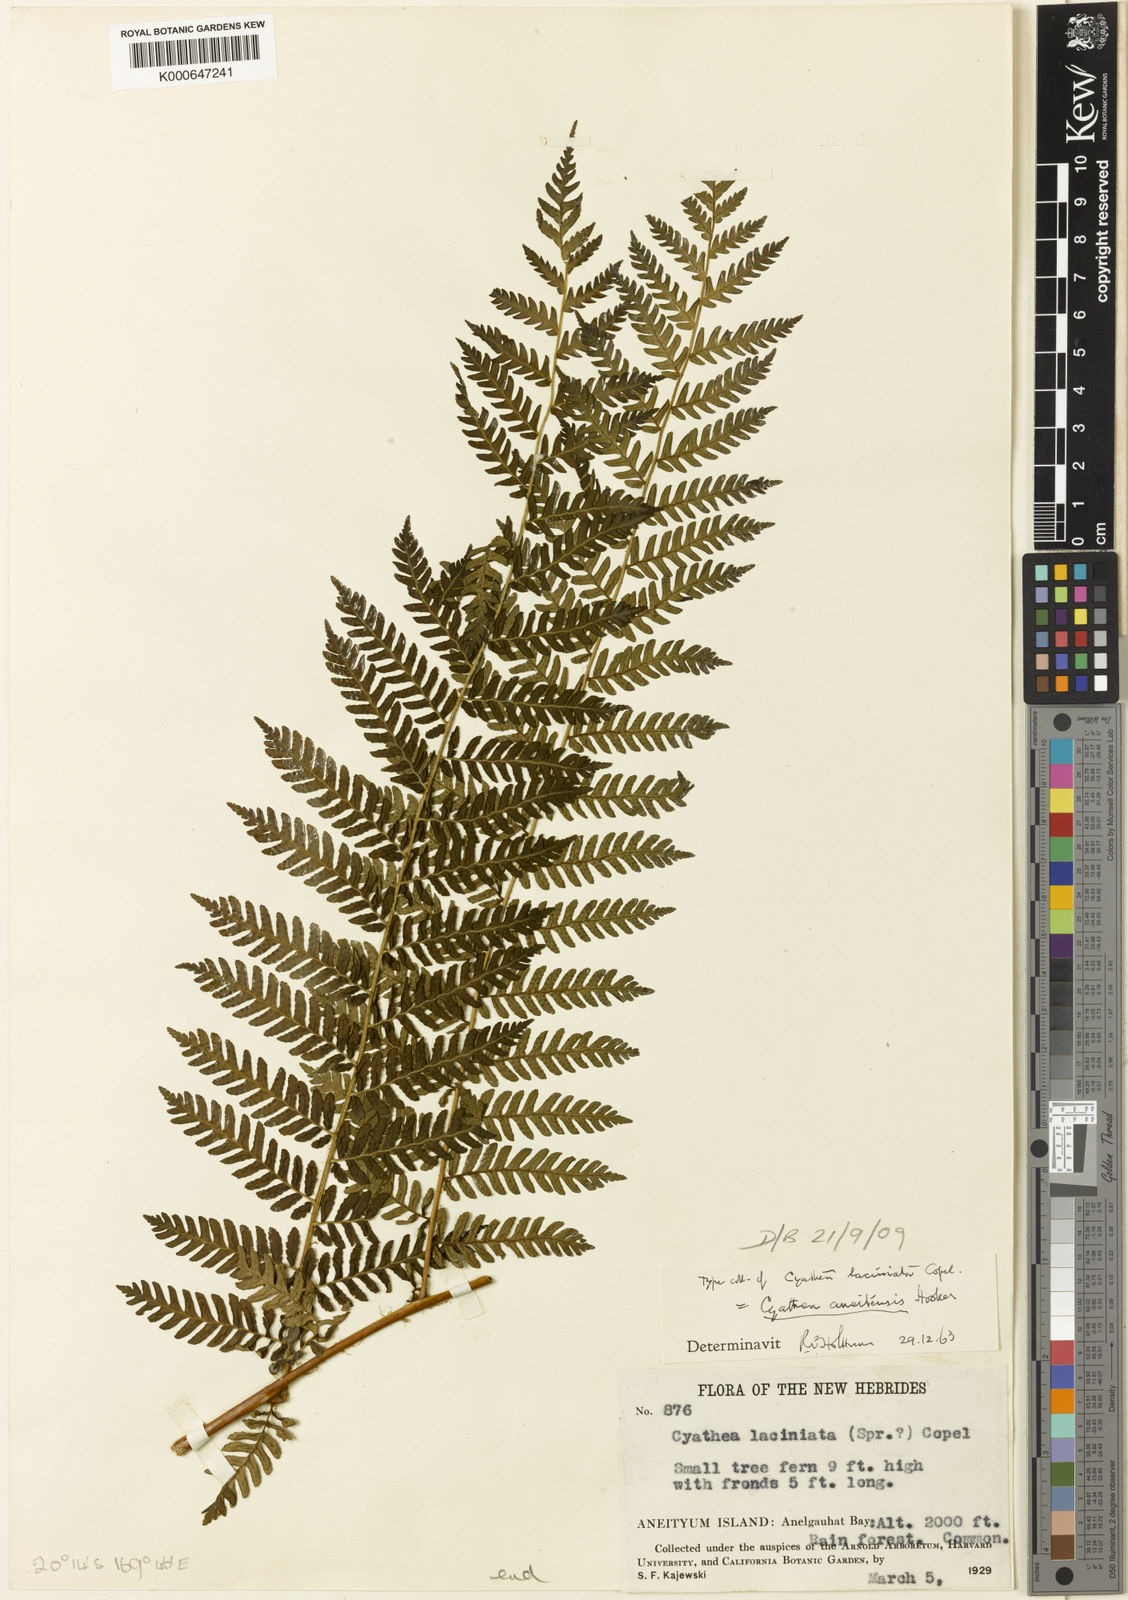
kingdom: Plantae
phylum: Tracheophyta
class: Polypodiopsida
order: Cyatheales
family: Cyatheaceae
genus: Alsophila
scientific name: Alsophila aneitensis
